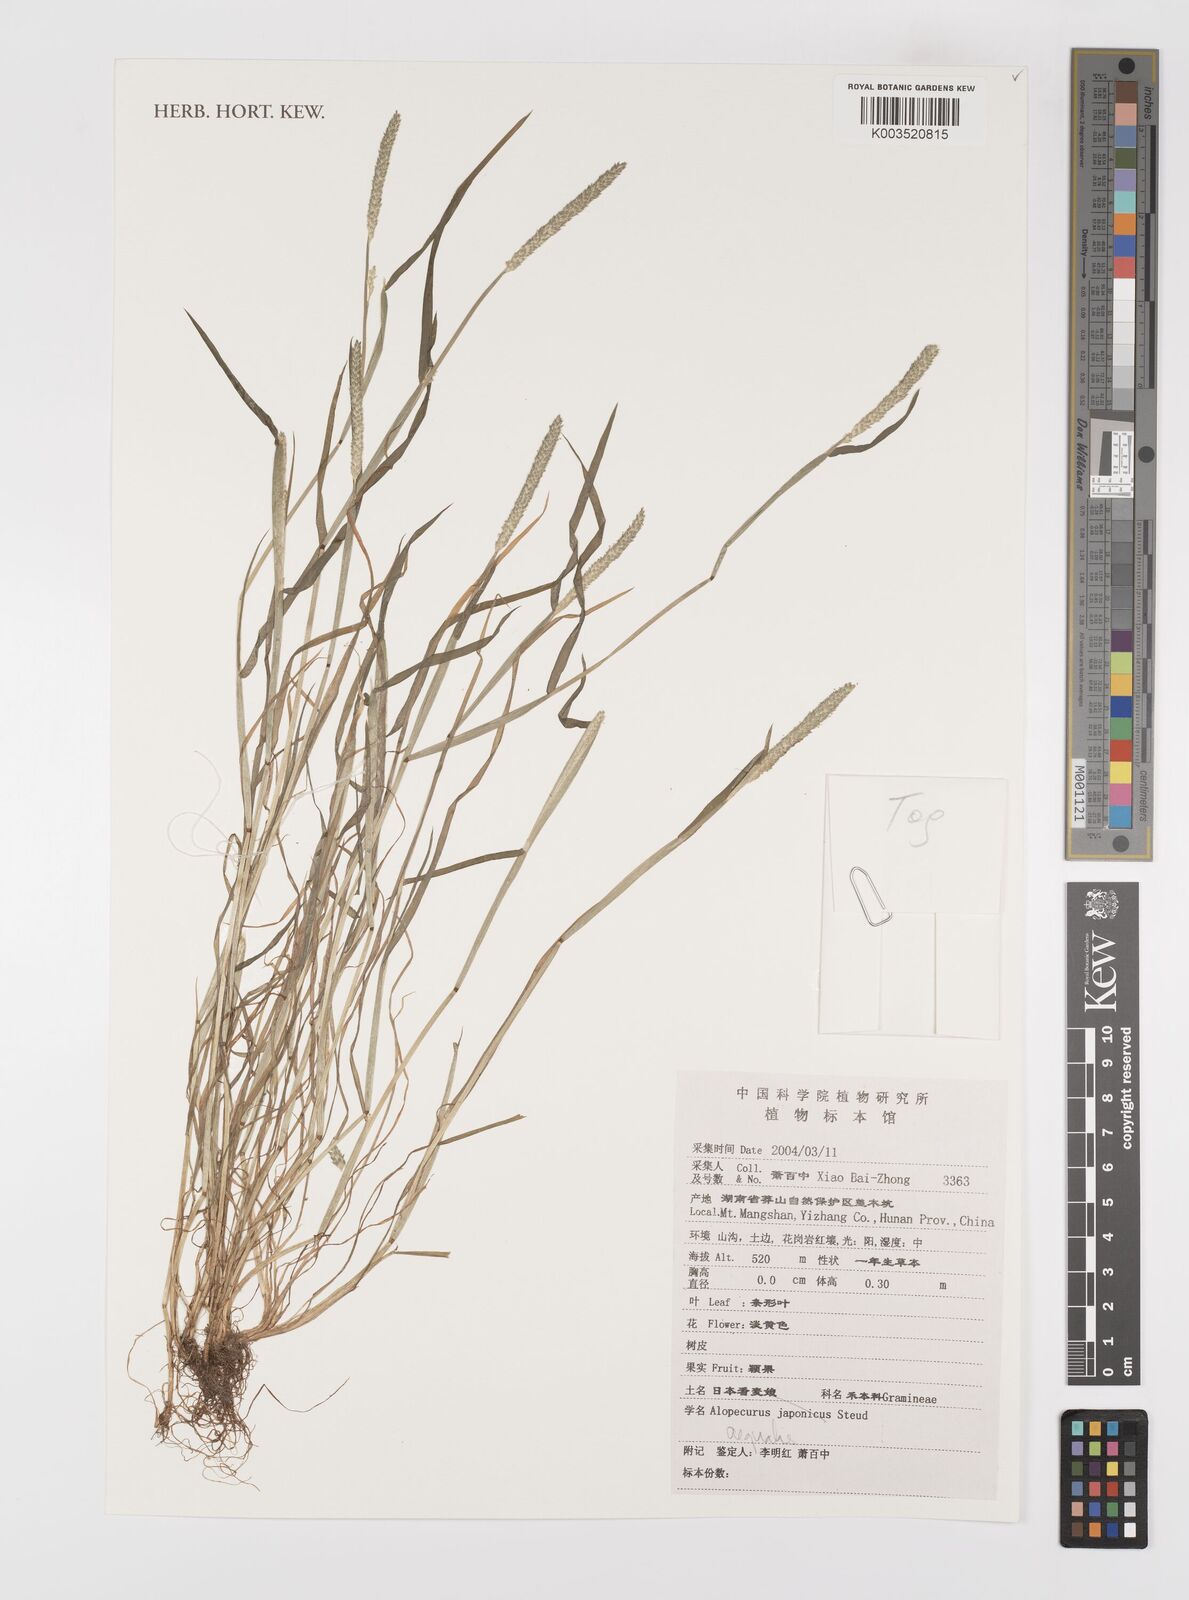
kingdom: Plantae
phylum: Tracheophyta
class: Liliopsida
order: Poales
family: Poaceae
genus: Alopecurus
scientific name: Alopecurus aequalis
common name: Orange foxtail
